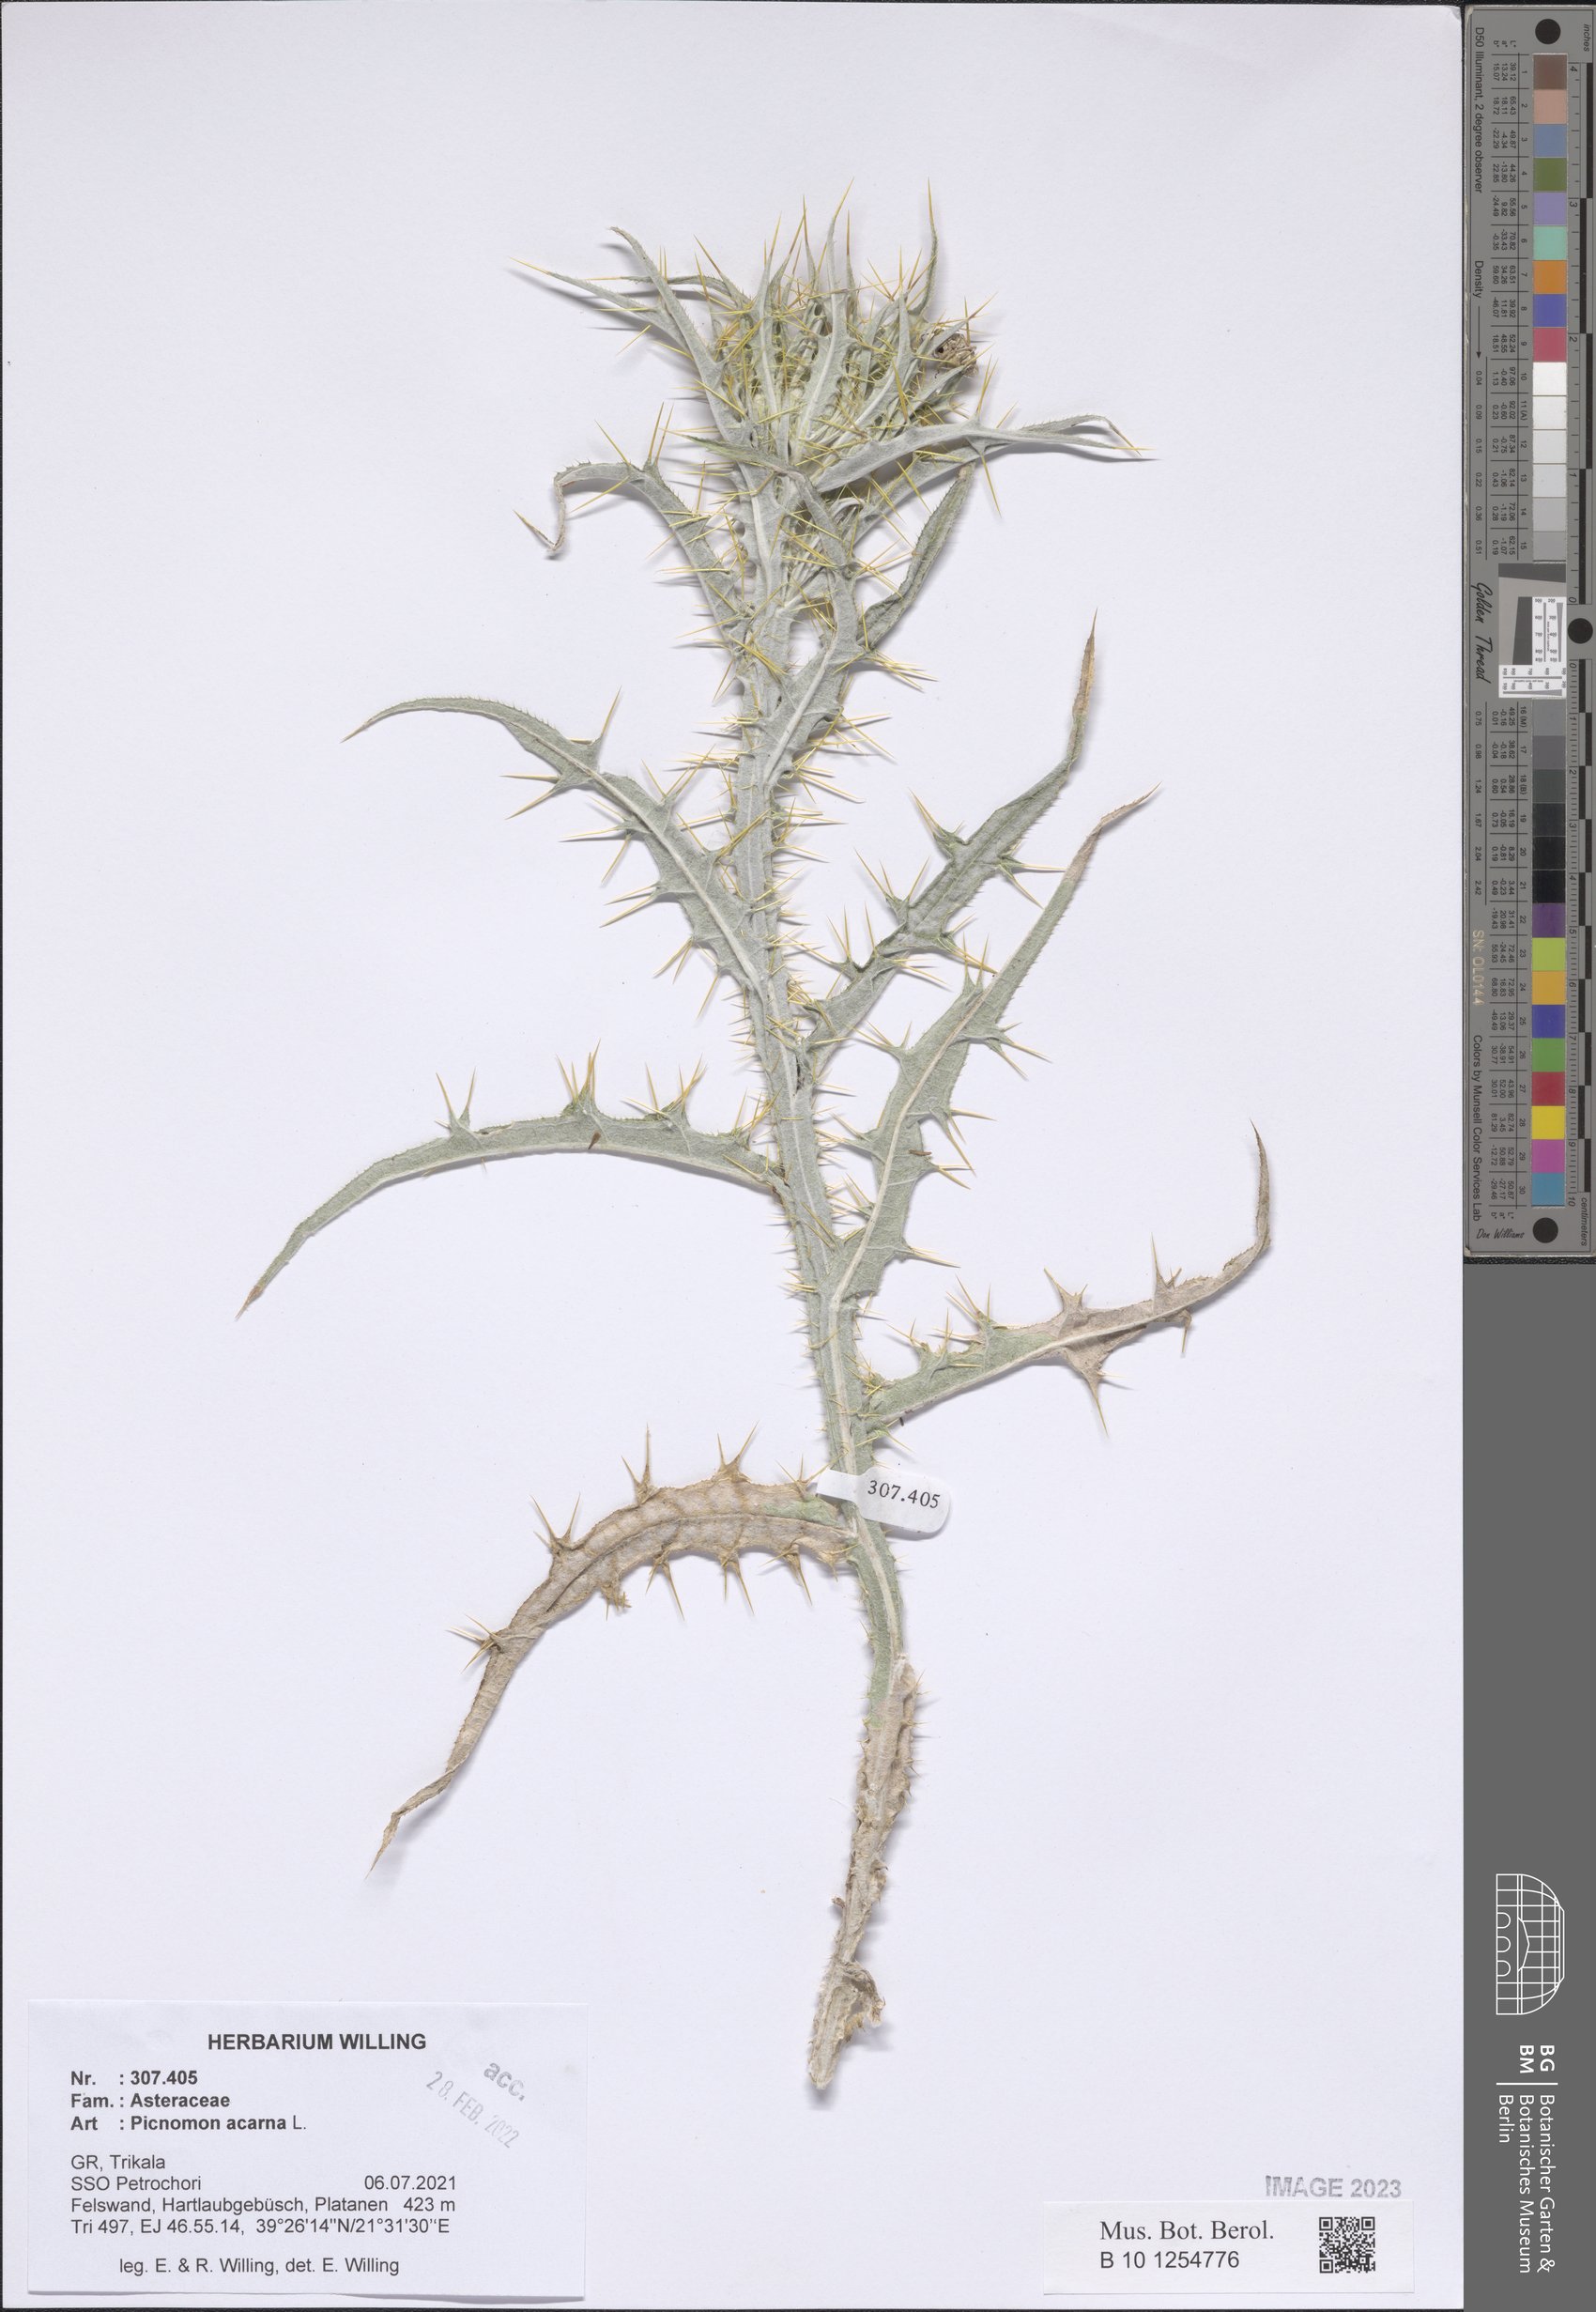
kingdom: Plantae
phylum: Tracheophyta
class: Magnoliopsida
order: Asterales
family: Asteraceae
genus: Picnomon
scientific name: Picnomon acarna
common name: Soldier thistle
